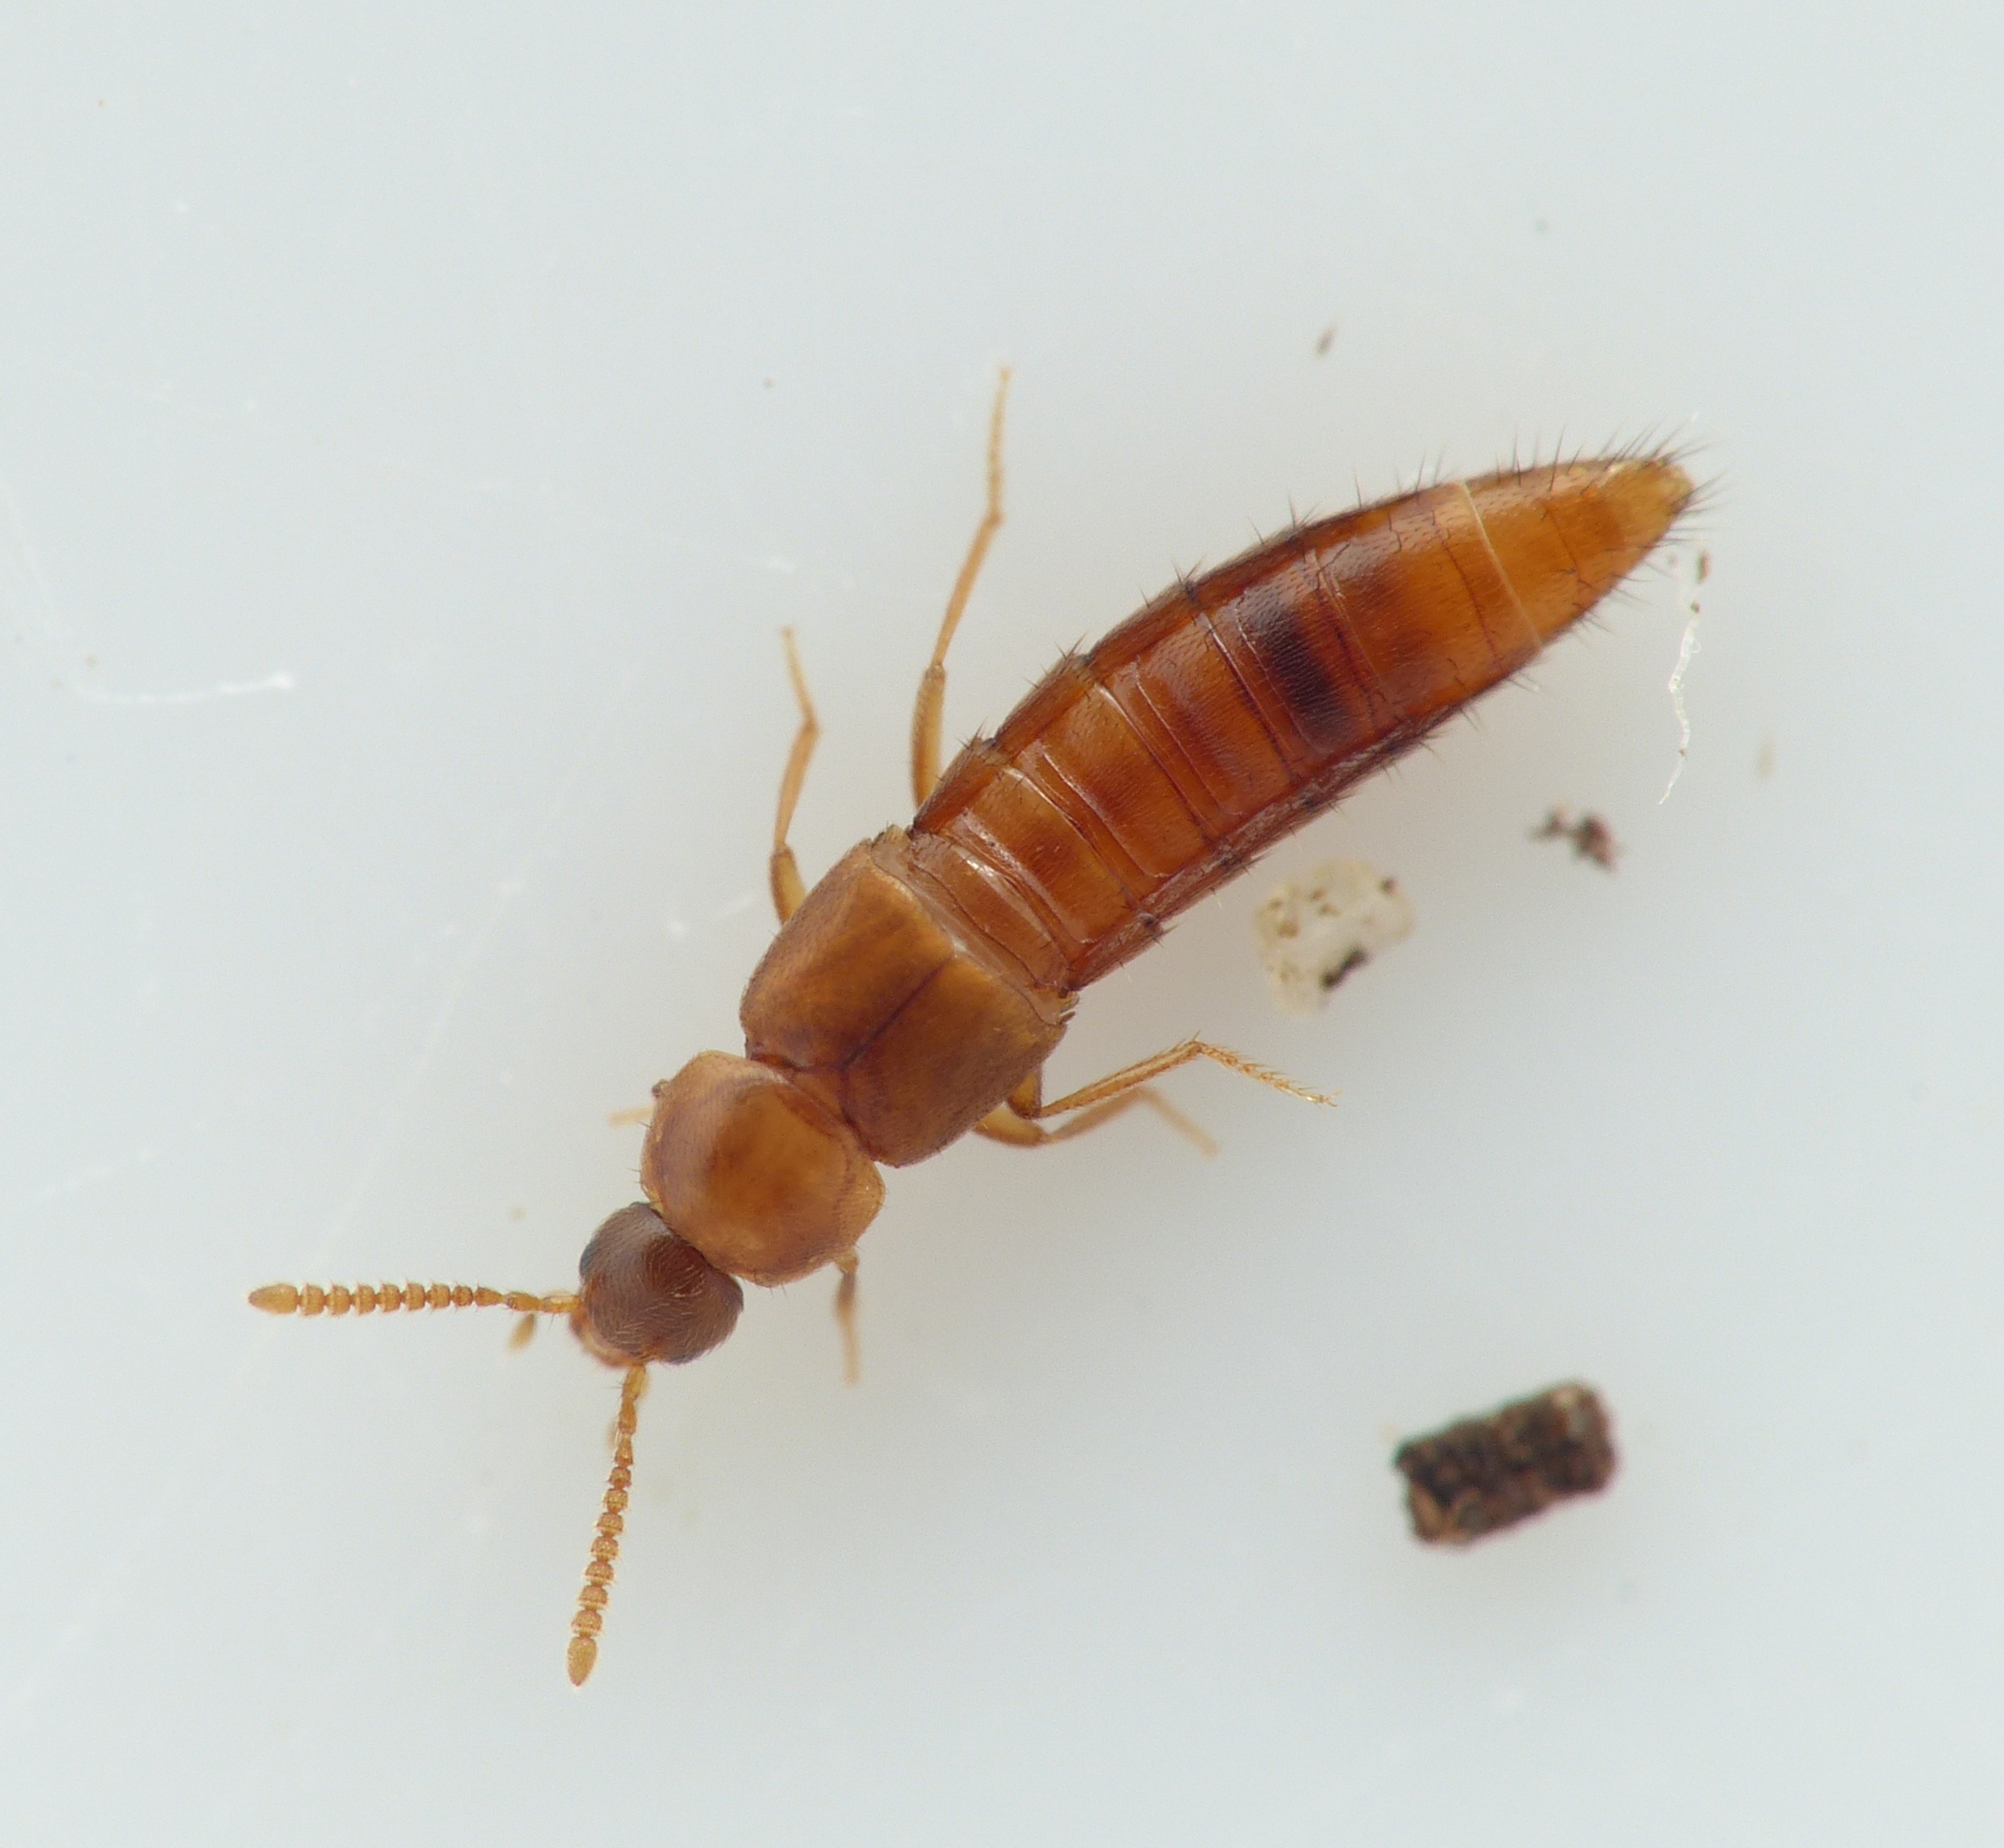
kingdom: Animalia
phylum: Arthropoda
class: Insecta
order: Coleoptera
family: Staphylinidae
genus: Oxypoda
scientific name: Oxypoda recondita
